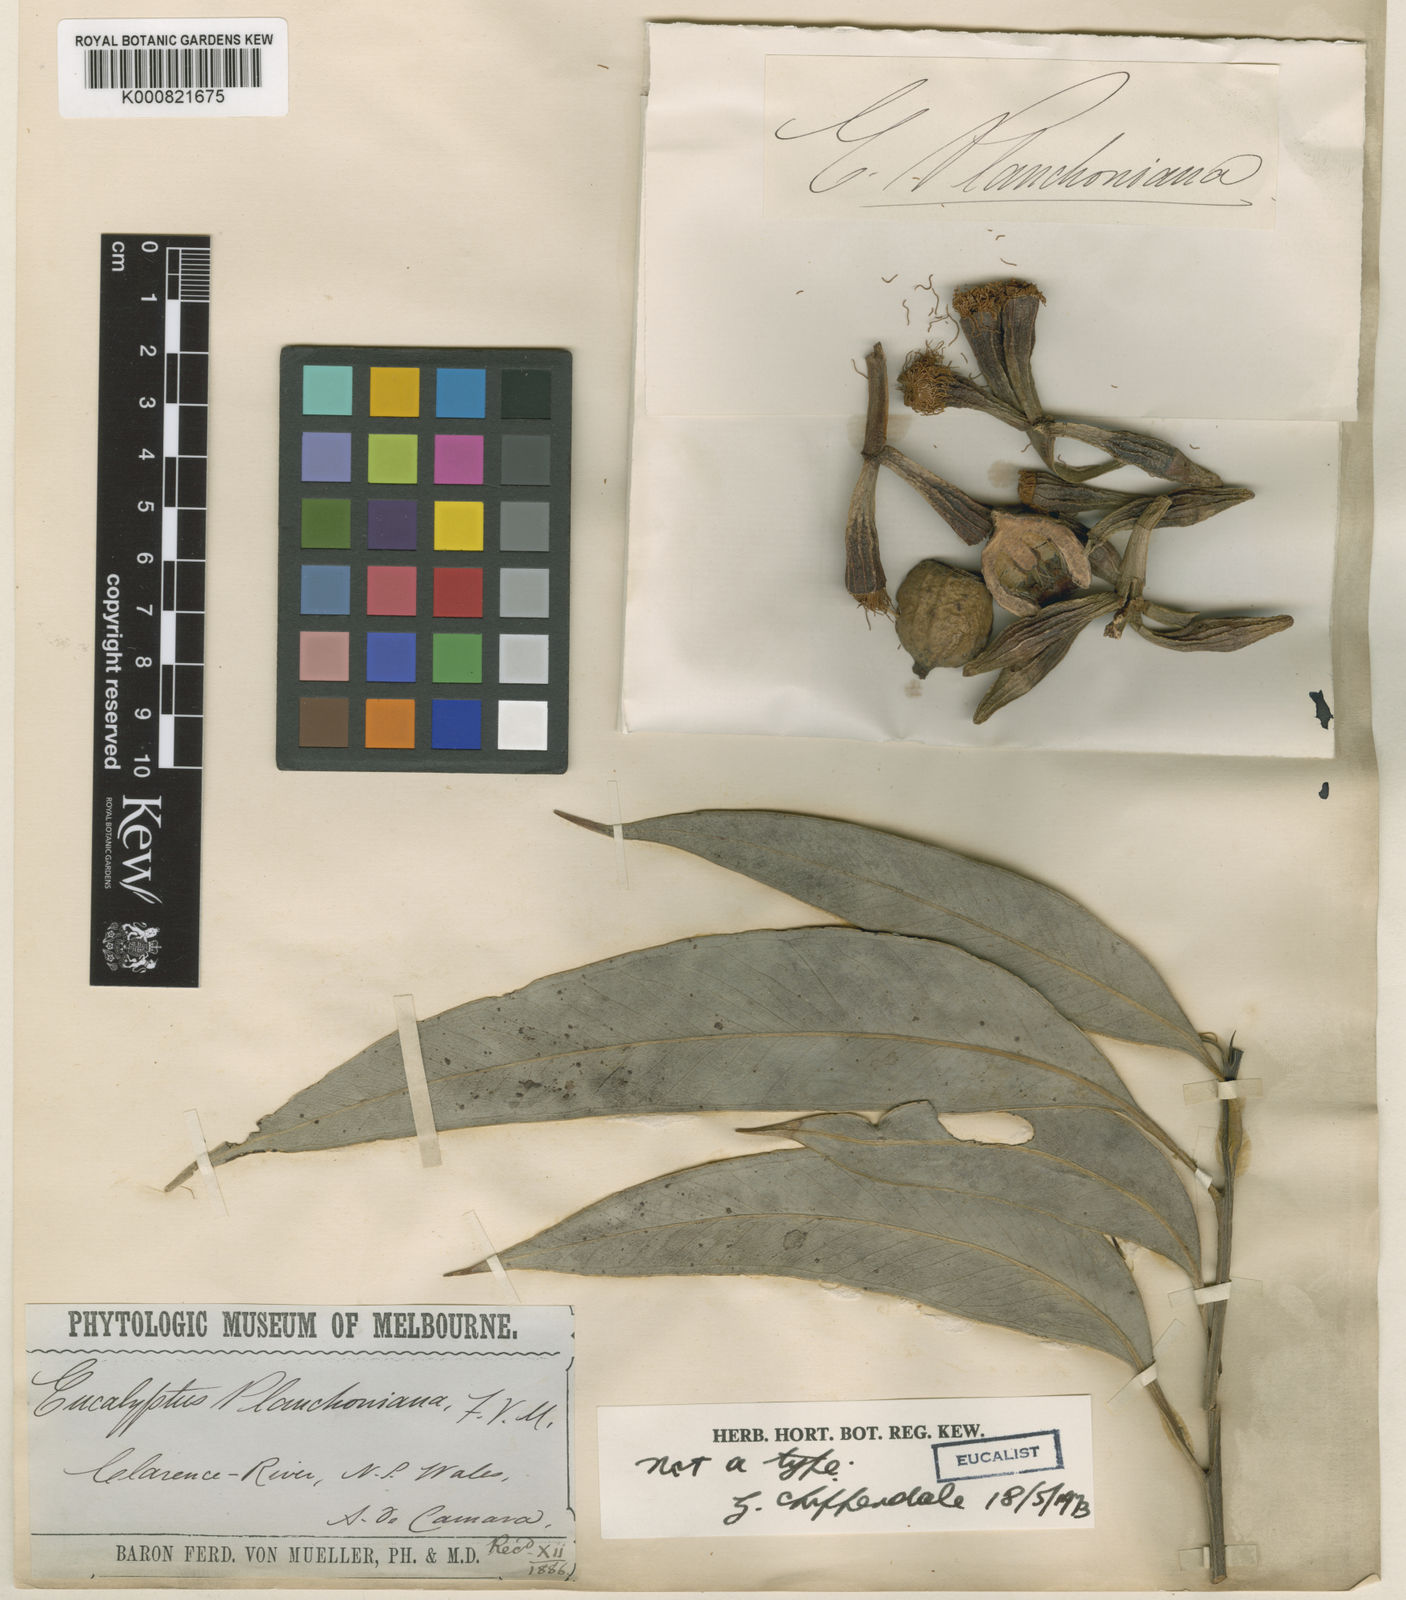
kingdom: Plantae
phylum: Tracheophyta
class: Magnoliopsida
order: Myrtales
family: Myrtaceae
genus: Eucalyptus
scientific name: Eucalyptus planchoniana
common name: Bastard-tallow-wood
